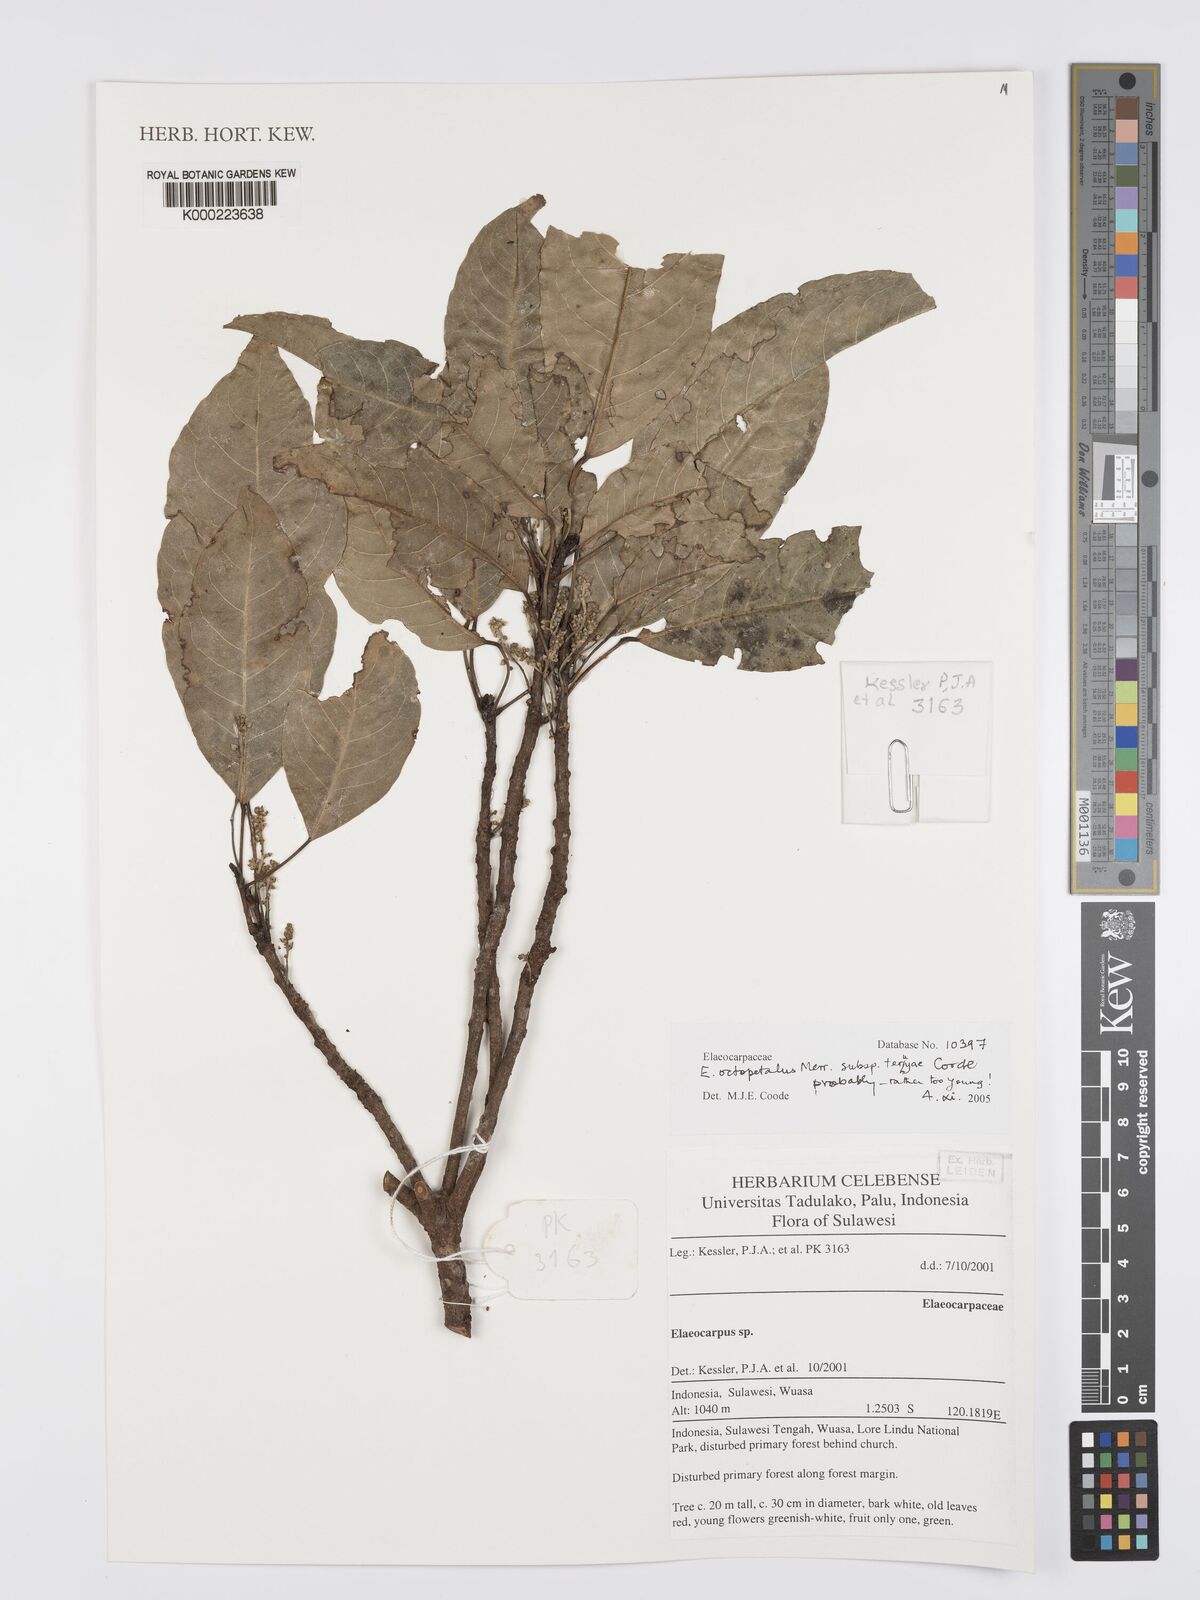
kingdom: Plantae
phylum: Tracheophyta
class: Magnoliopsida
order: Oxalidales
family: Elaeocarpaceae
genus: Elaeocarpus
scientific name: Elaeocarpus octopetalus
